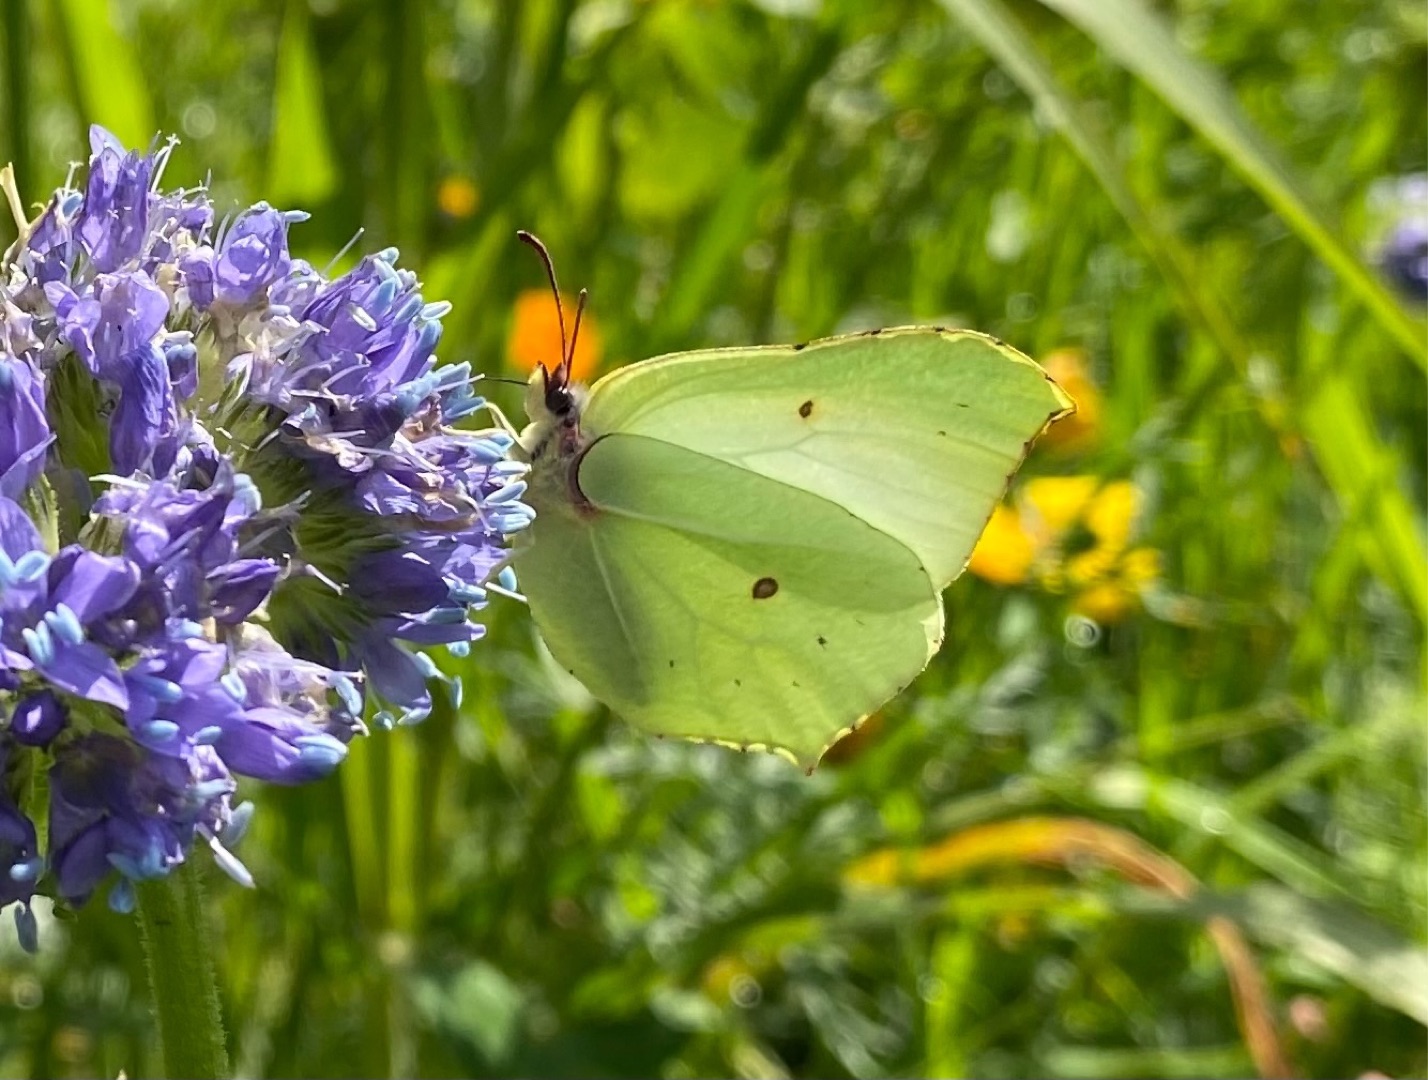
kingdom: Animalia
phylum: Arthropoda
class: Insecta
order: Lepidoptera
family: Pieridae
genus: Gonepteryx
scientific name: Gonepteryx rhamni
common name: Citronsommerfugl
